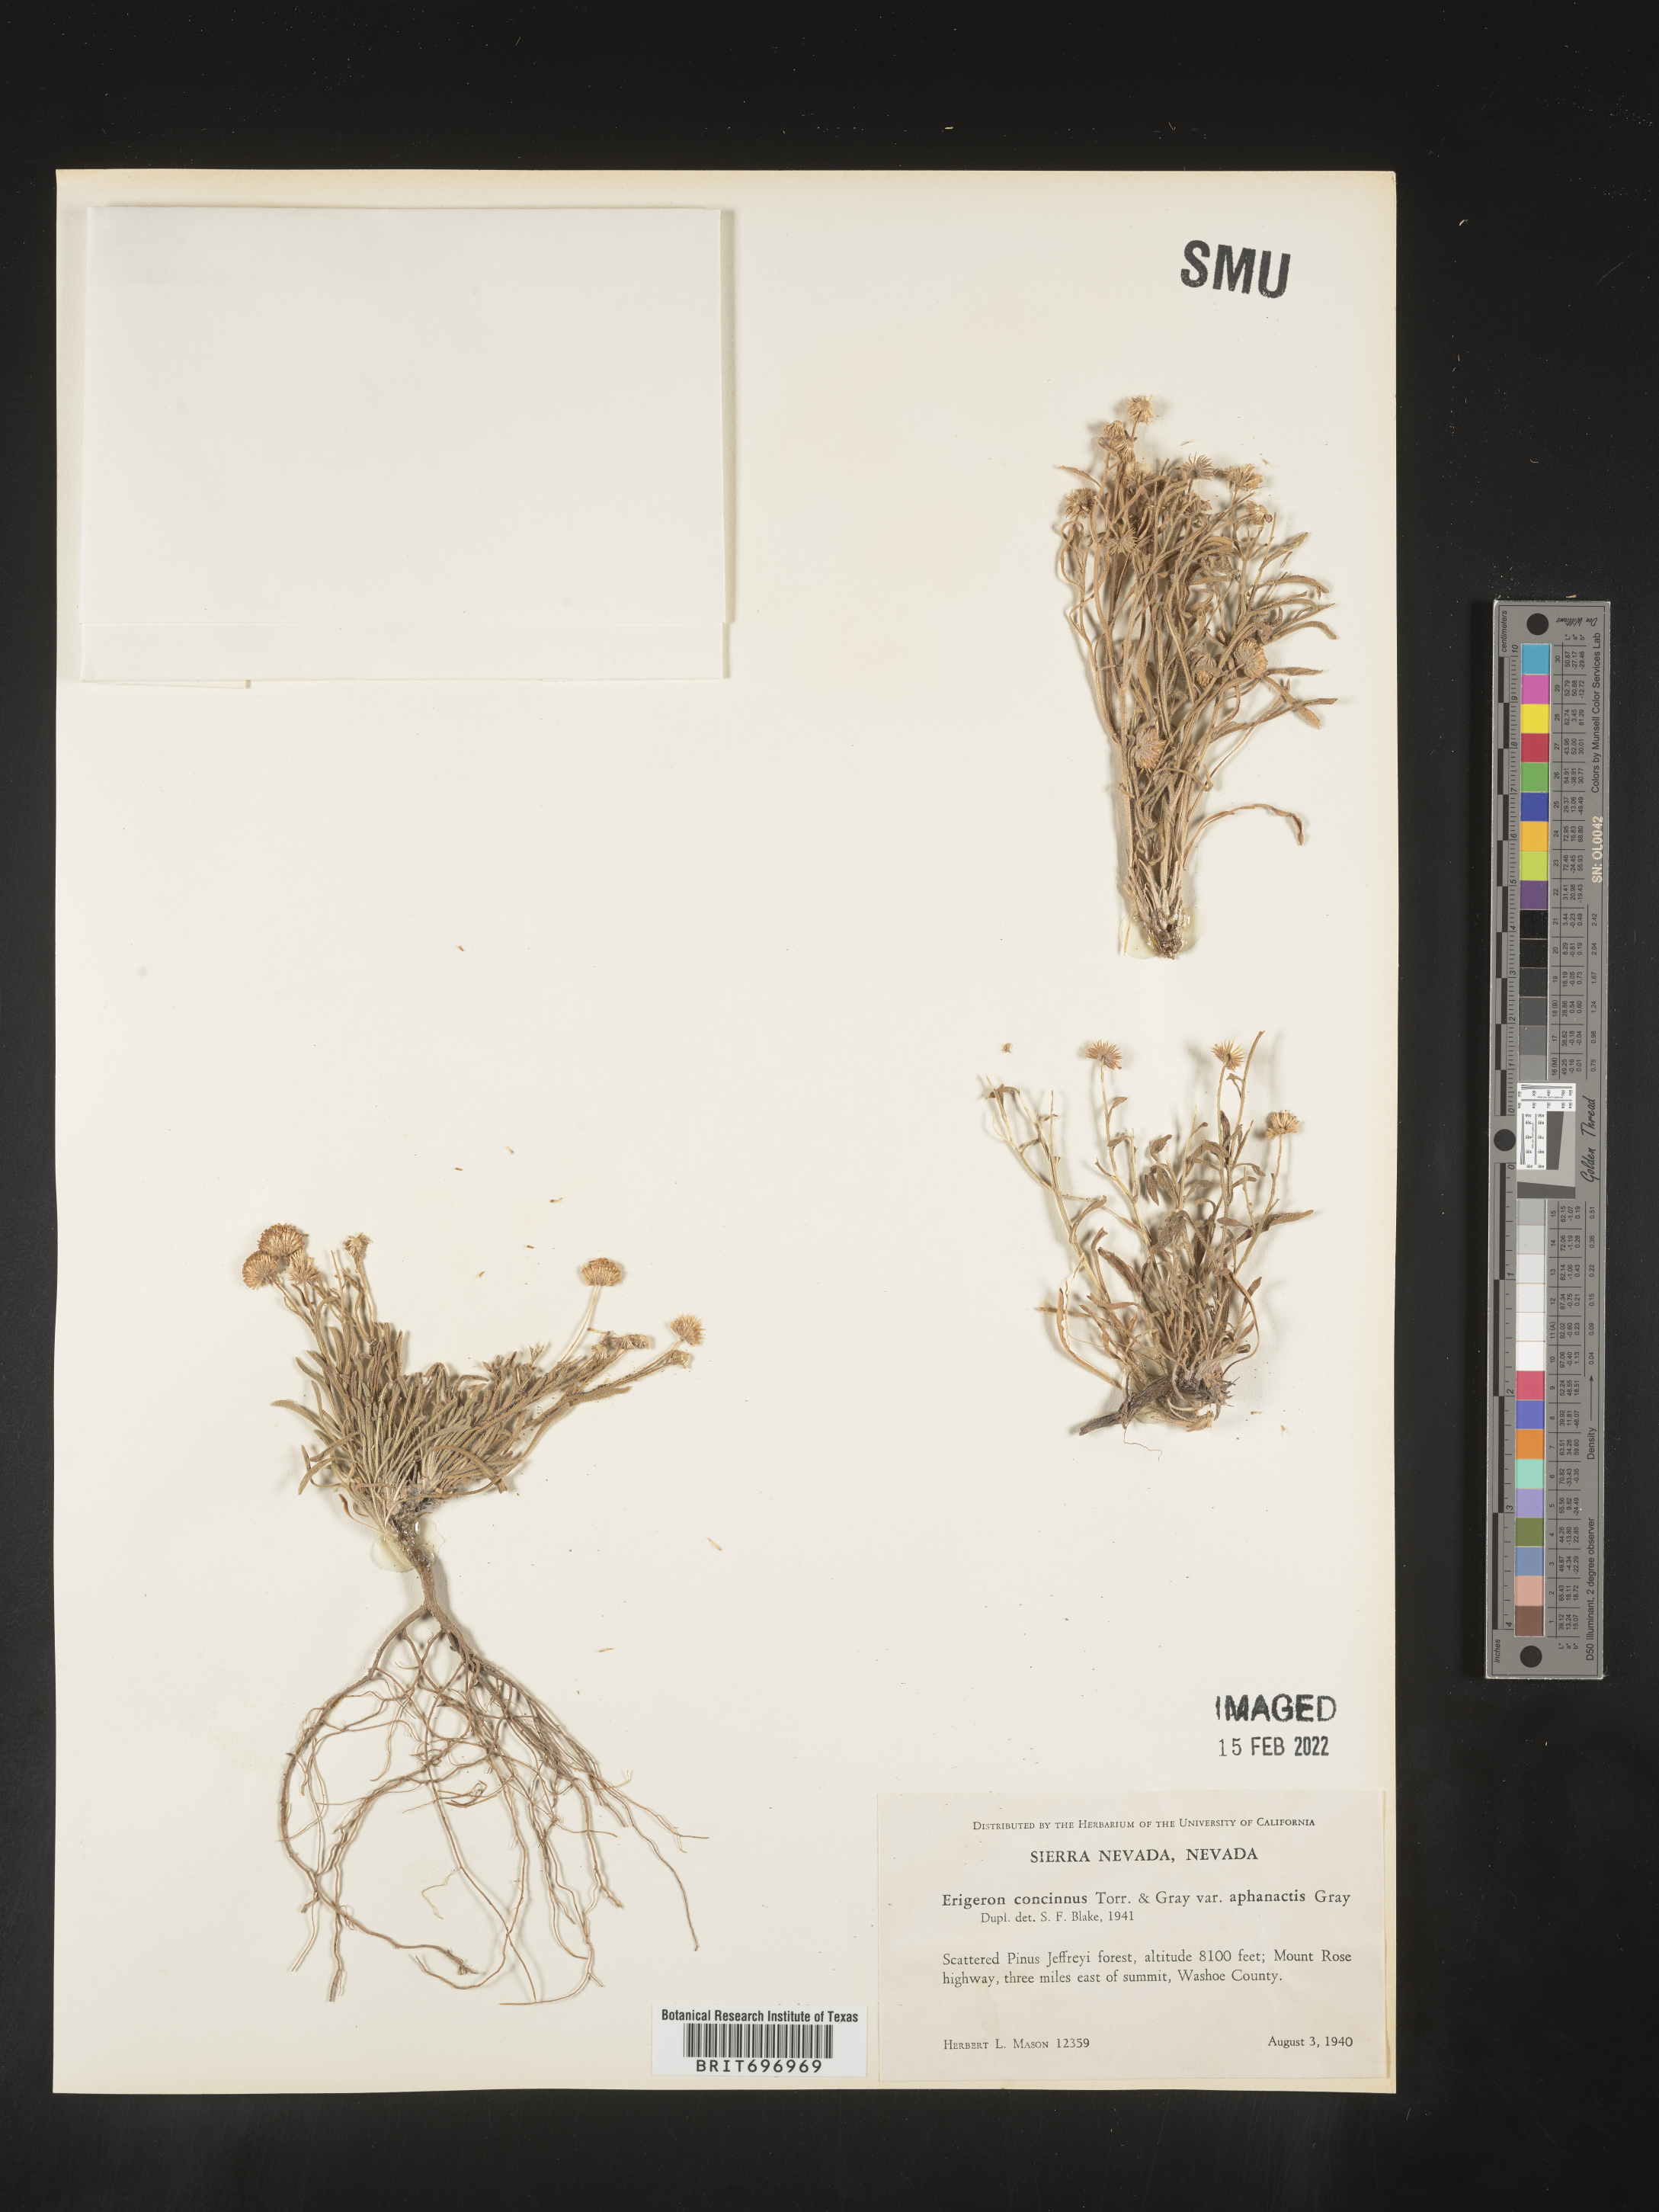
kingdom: Plantae
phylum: Tracheophyta
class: Magnoliopsida
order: Asterales
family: Asteraceae
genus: Erigeron
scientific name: Erigeron aphanactis
